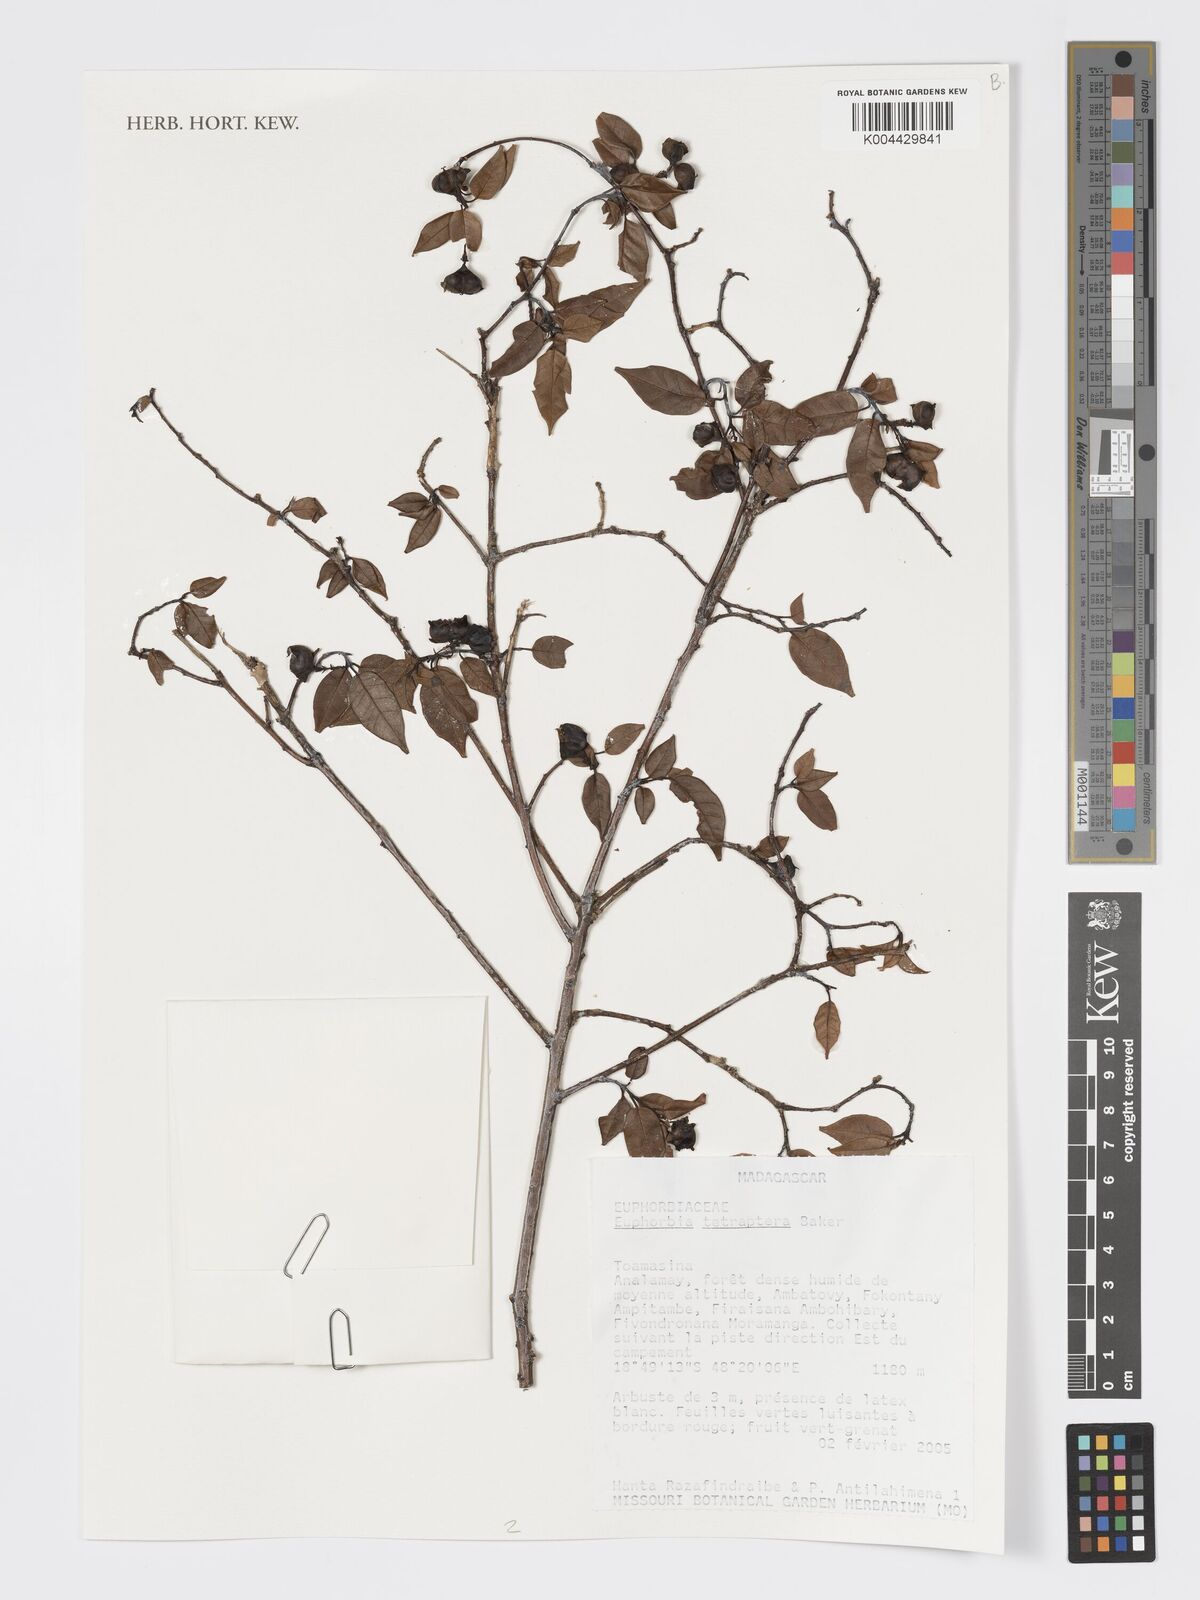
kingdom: Plantae
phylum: Tracheophyta
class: Magnoliopsida
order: Malpighiales
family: Euphorbiaceae
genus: Euphorbia
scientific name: Euphorbia tetraptera
